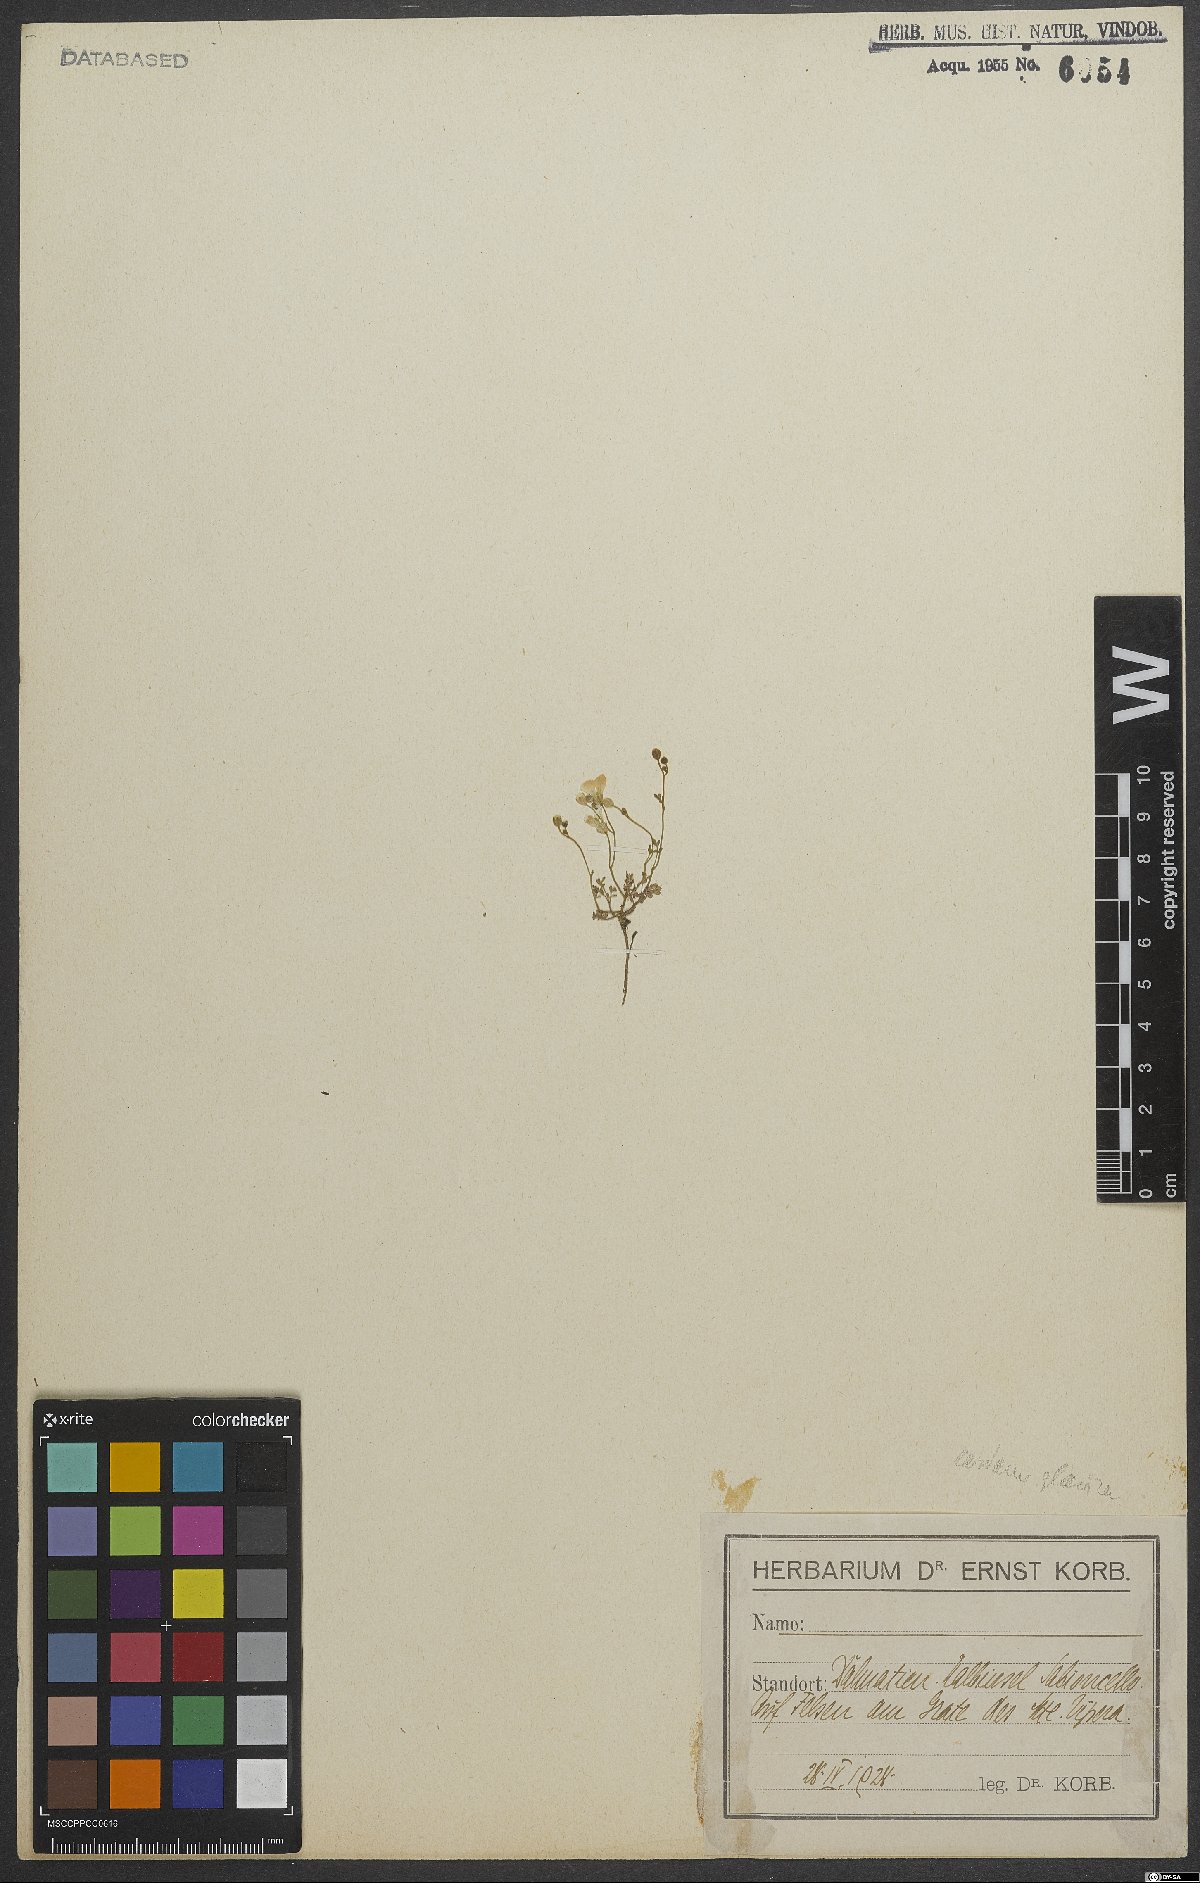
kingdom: Plantae
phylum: Tracheophyta
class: Magnoliopsida
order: Brassicales
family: Brassicaceae
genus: Cardamine
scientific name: Cardamine glauca
